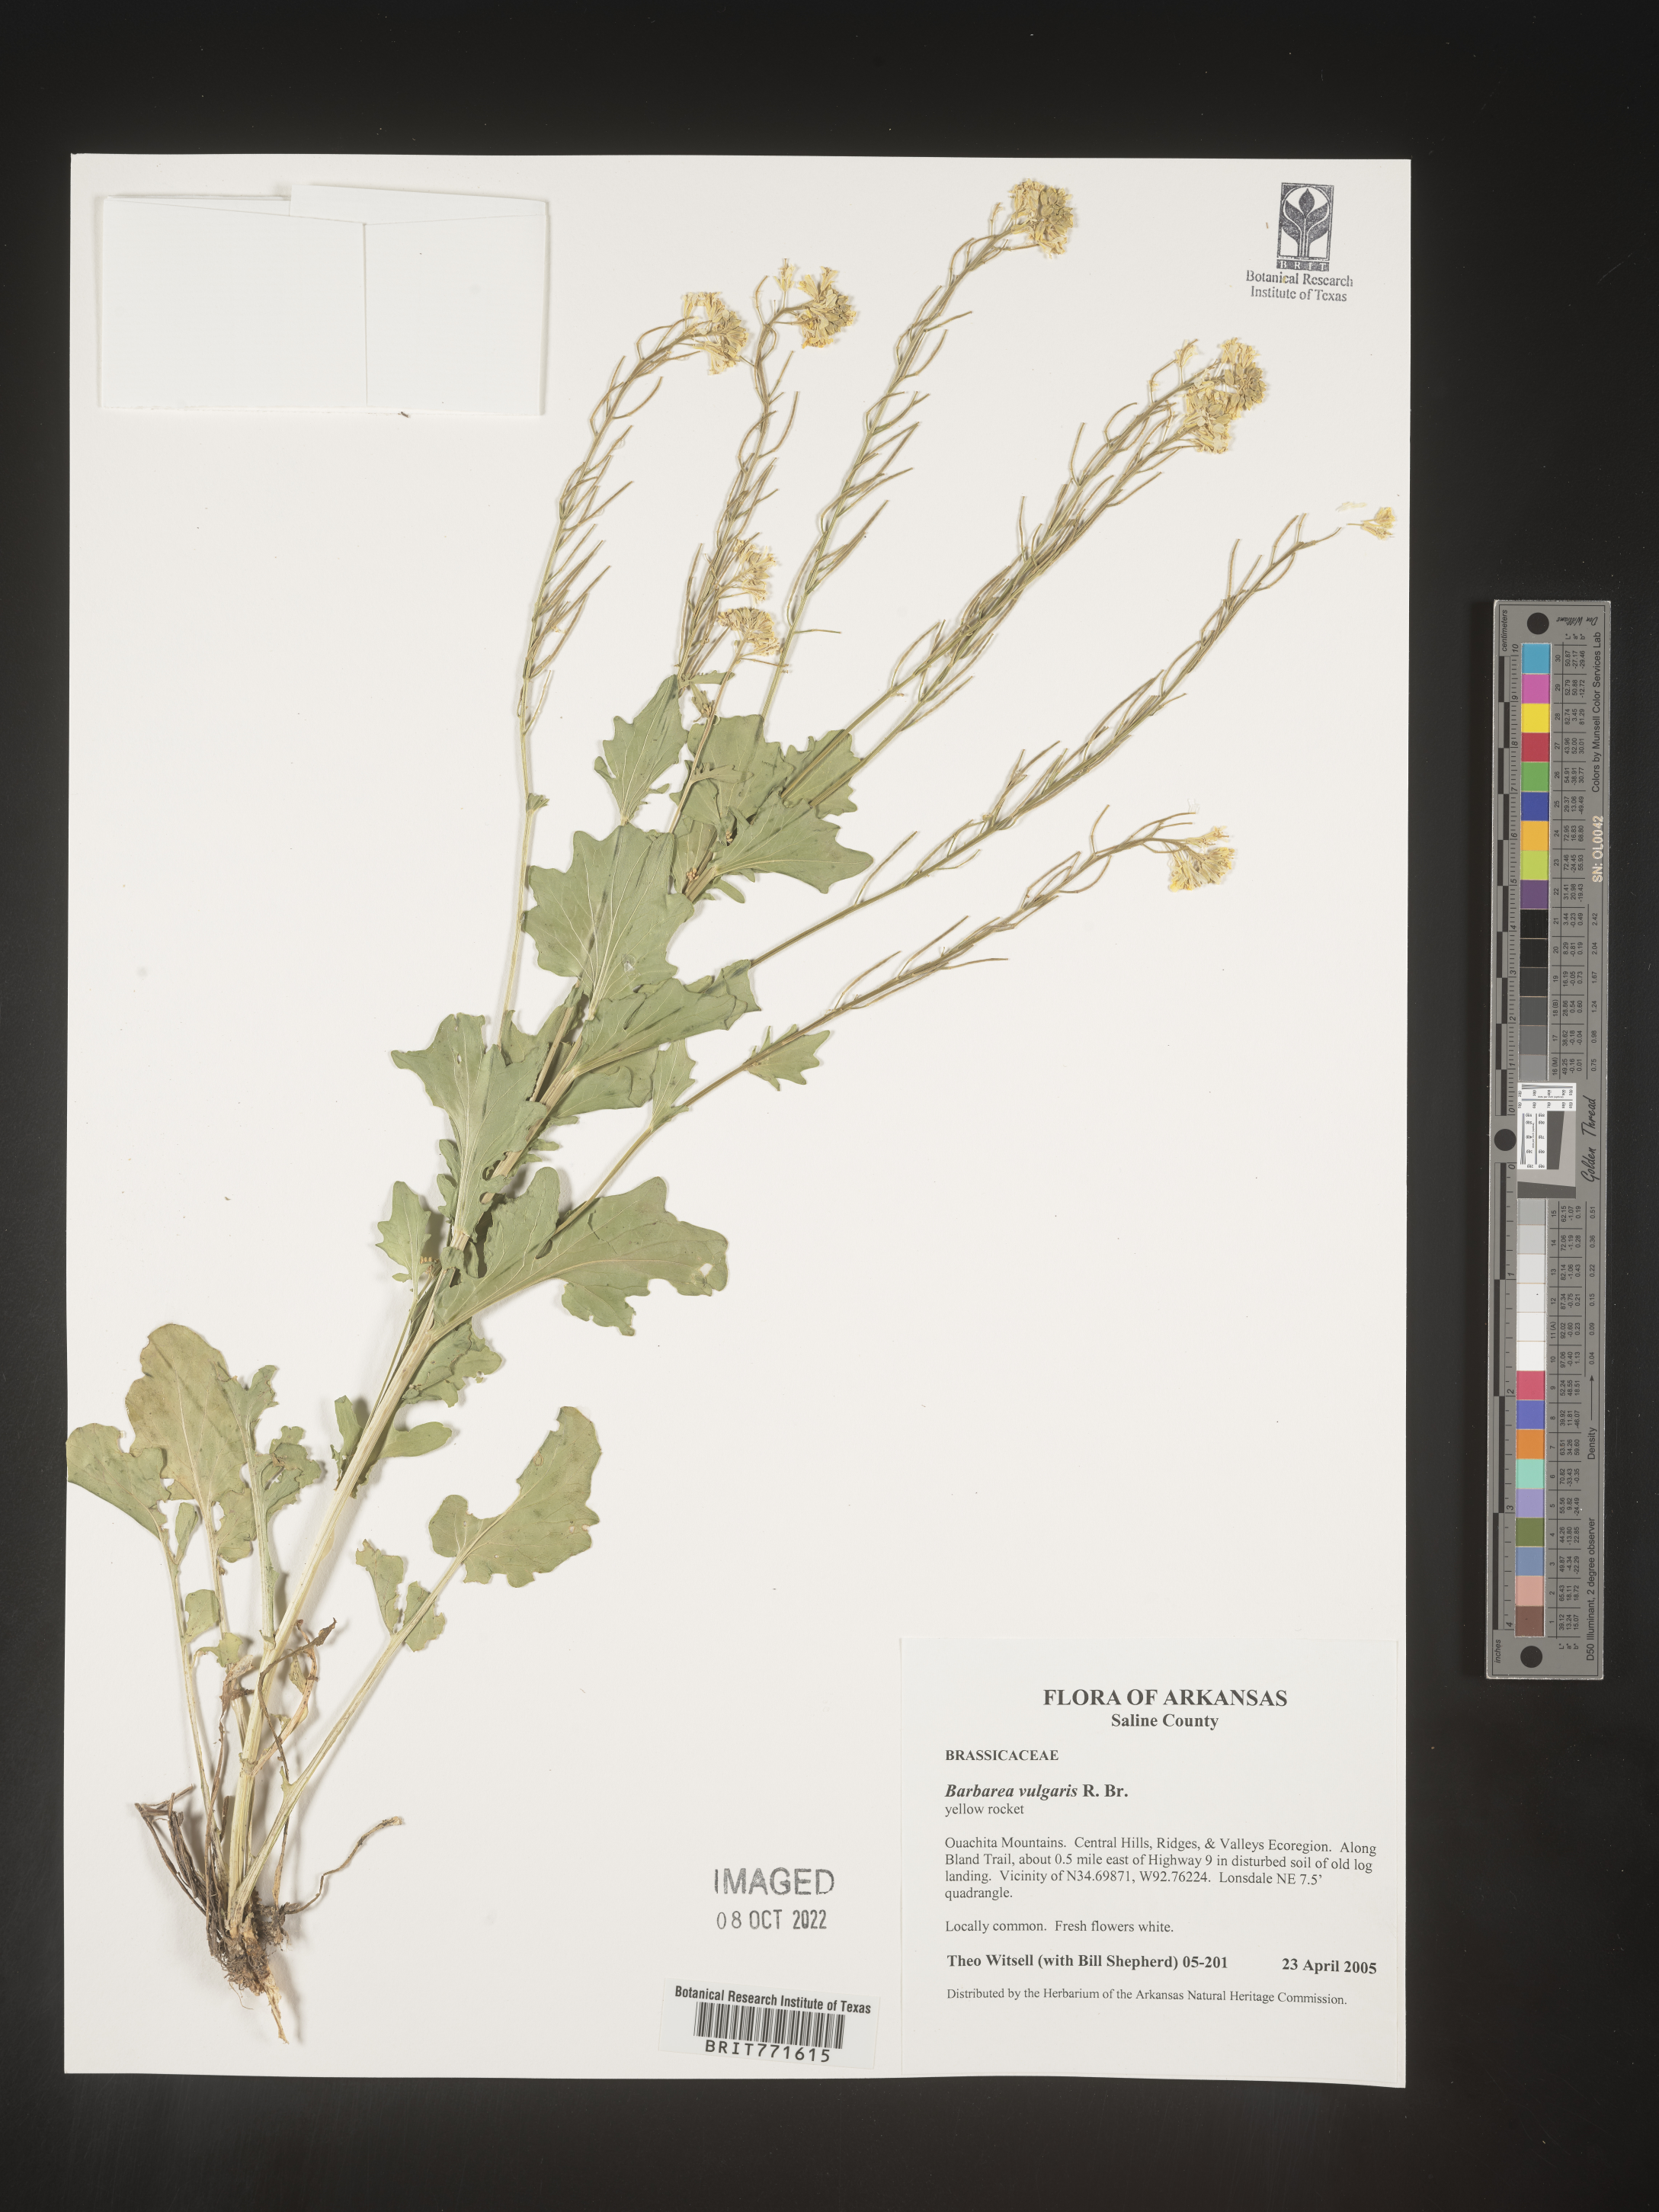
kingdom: Plantae
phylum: Tracheophyta
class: Magnoliopsida
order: Brassicales
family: Brassicaceae
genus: Barbarea
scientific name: Barbarea vulgaris
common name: Cressy-greens
